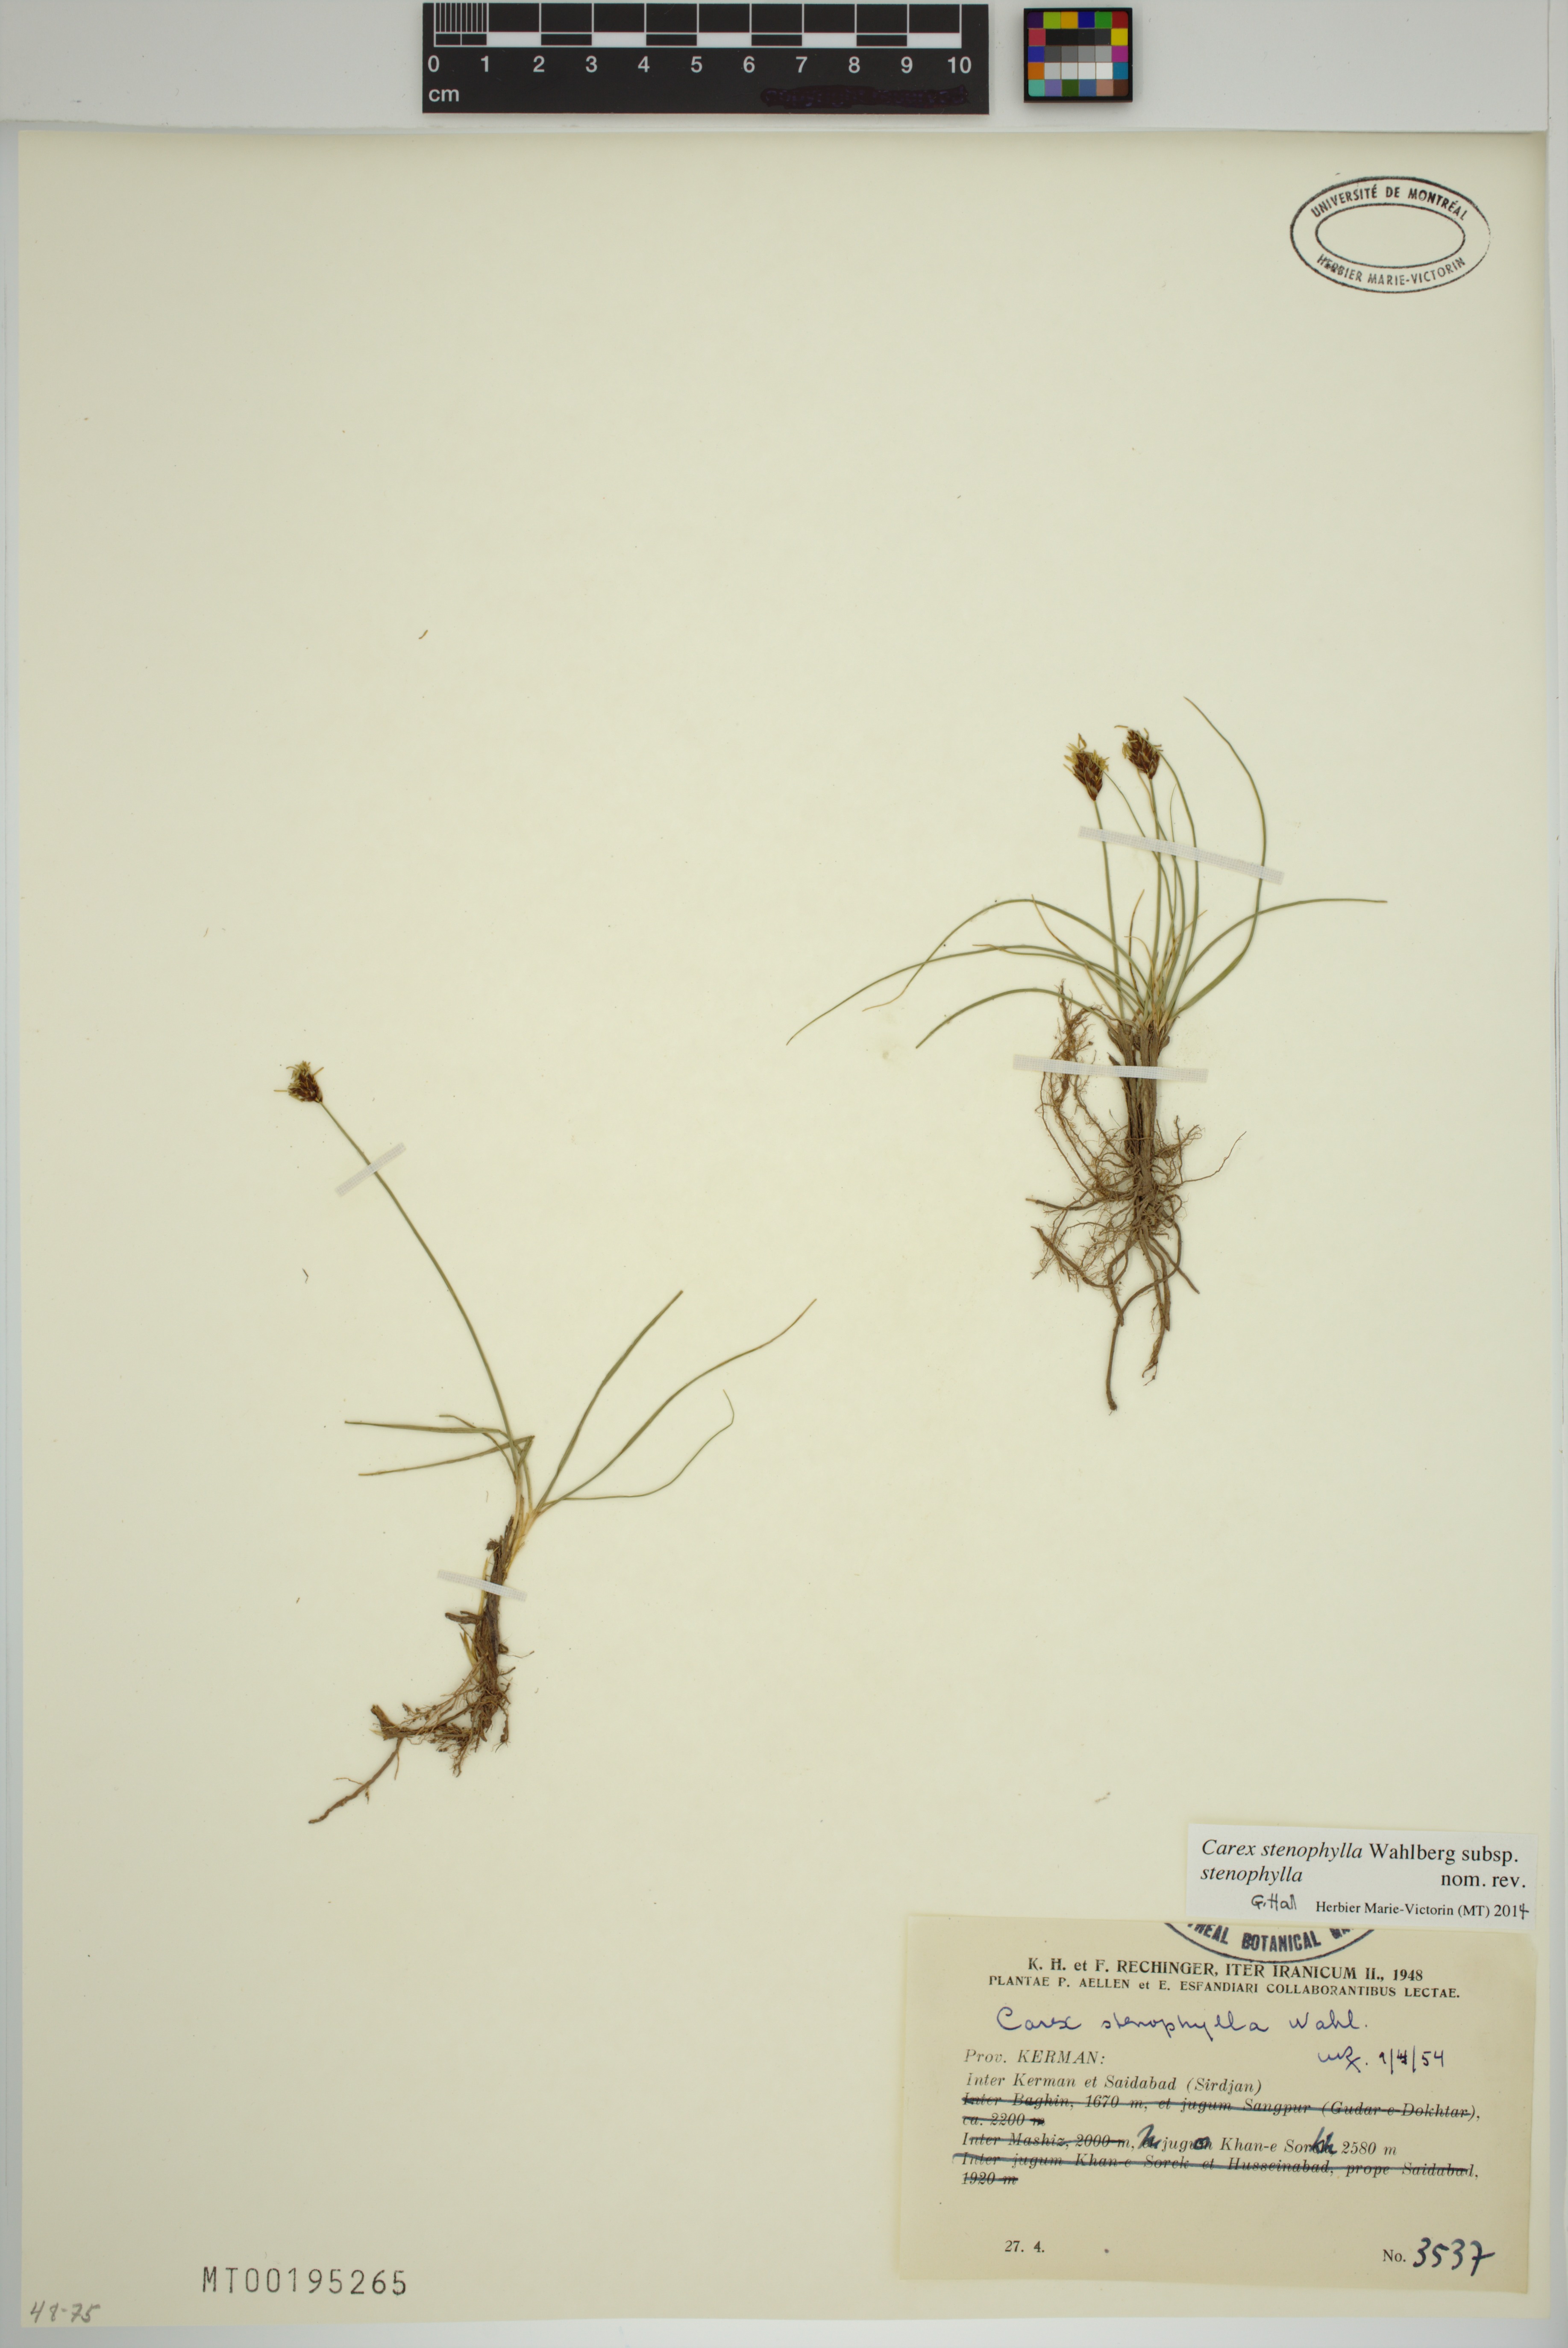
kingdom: Plantae
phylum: Tracheophyta
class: Liliopsida
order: Poales
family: Cyperaceae
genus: Carex
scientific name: Carex stenophylla
